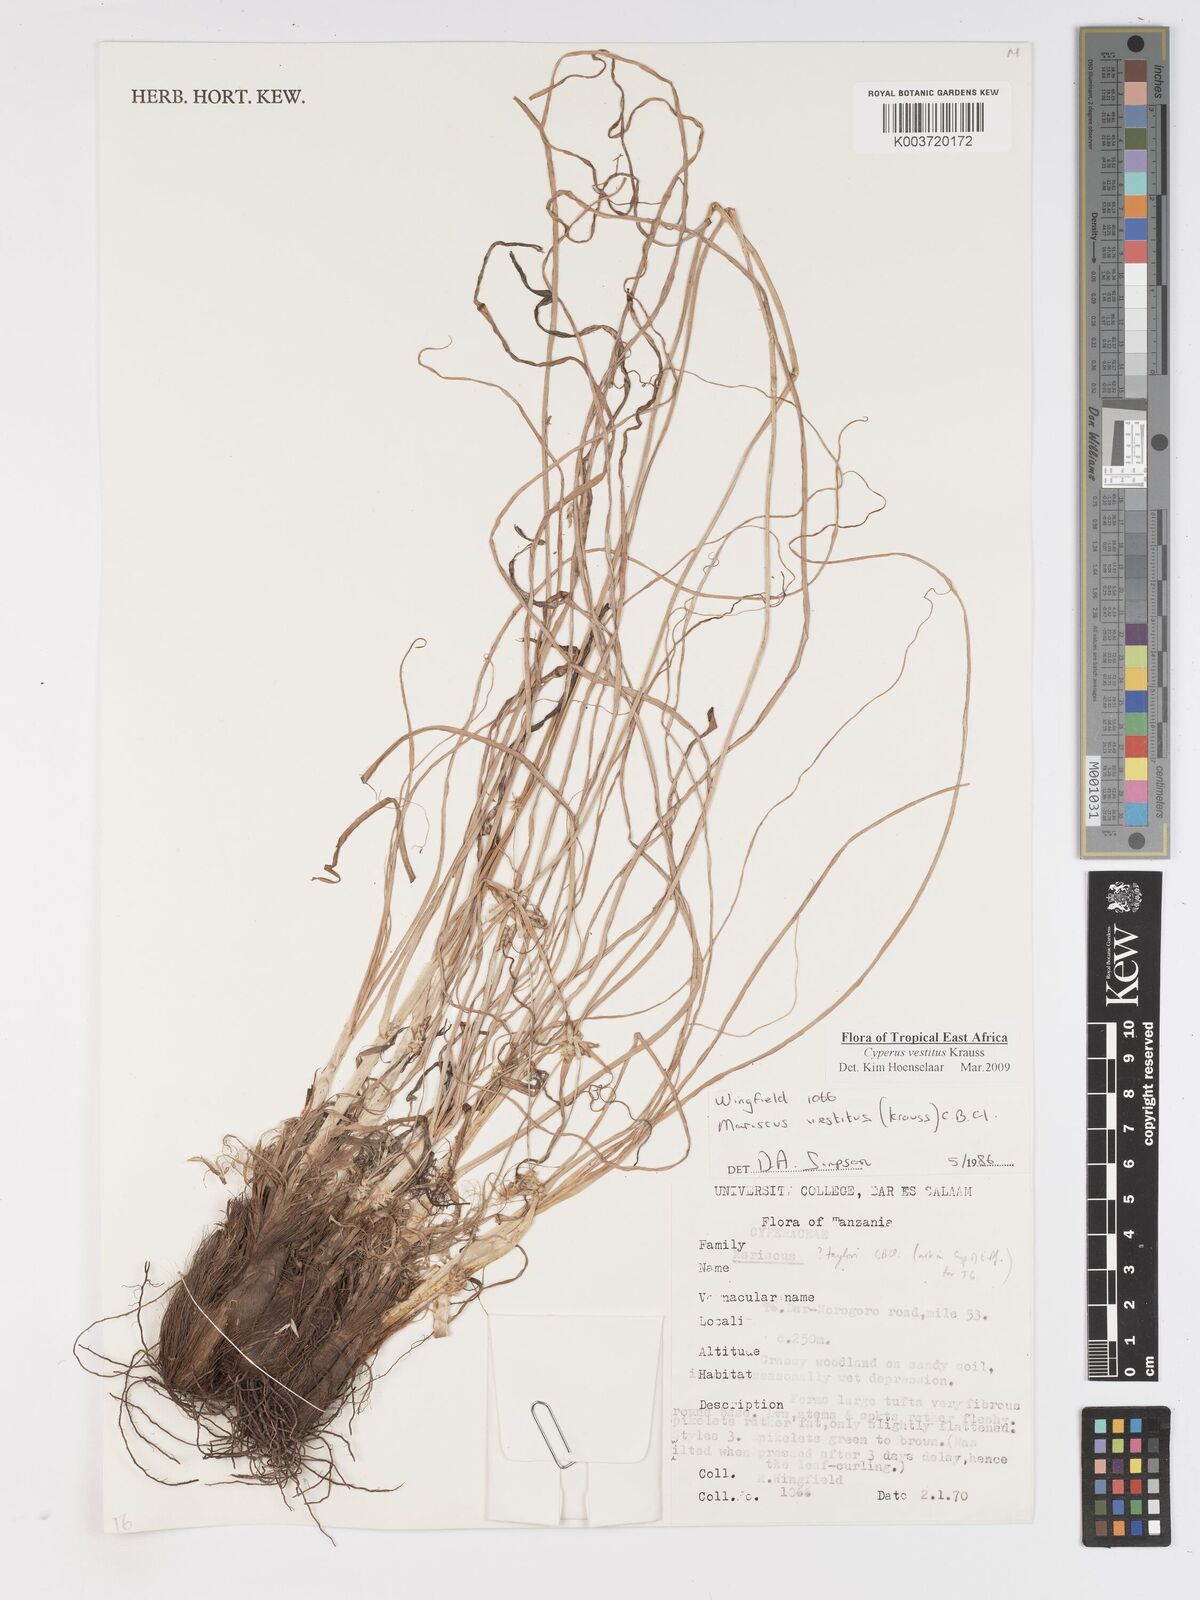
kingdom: Plantae
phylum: Tracheophyta
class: Liliopsida
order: Poales
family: Cyperaceae
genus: Cyperus
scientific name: Cyperus vestitus
